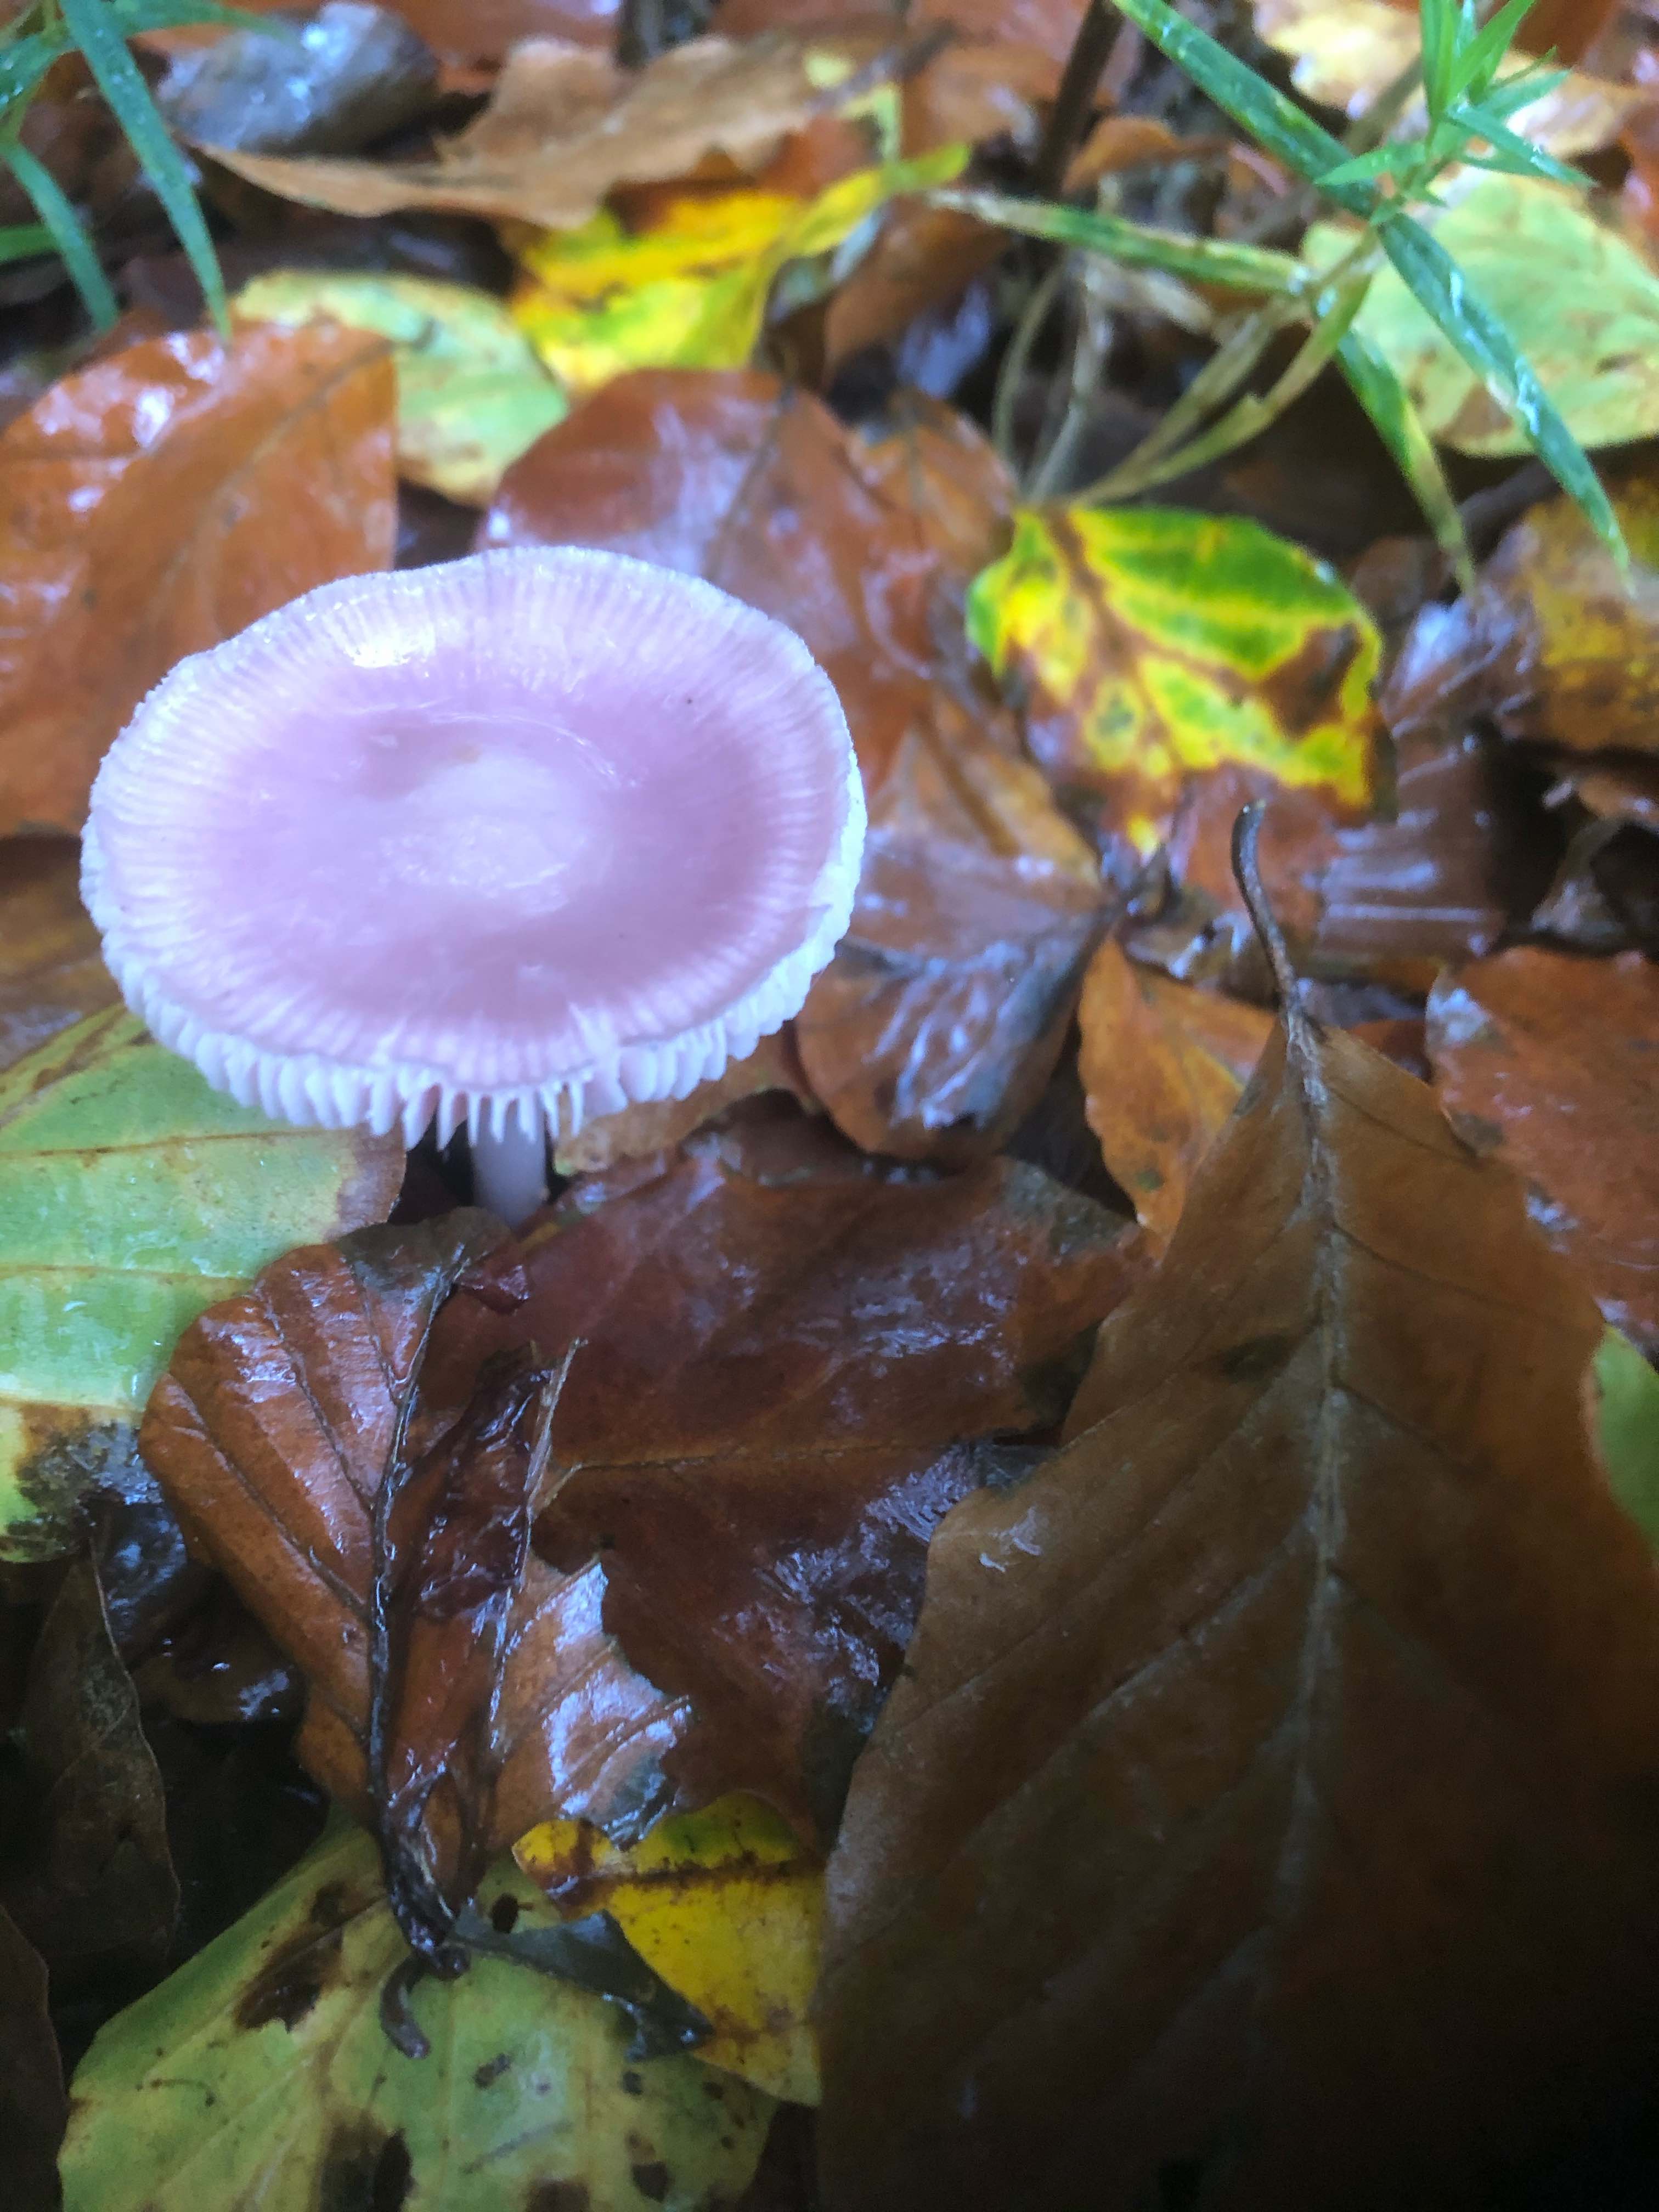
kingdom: Fungi
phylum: Basidiomycota
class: Agaricomycetes
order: Agaricales
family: Mycenaceae
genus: Mycena
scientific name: Mycena rosea
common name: rosa huesvamp
